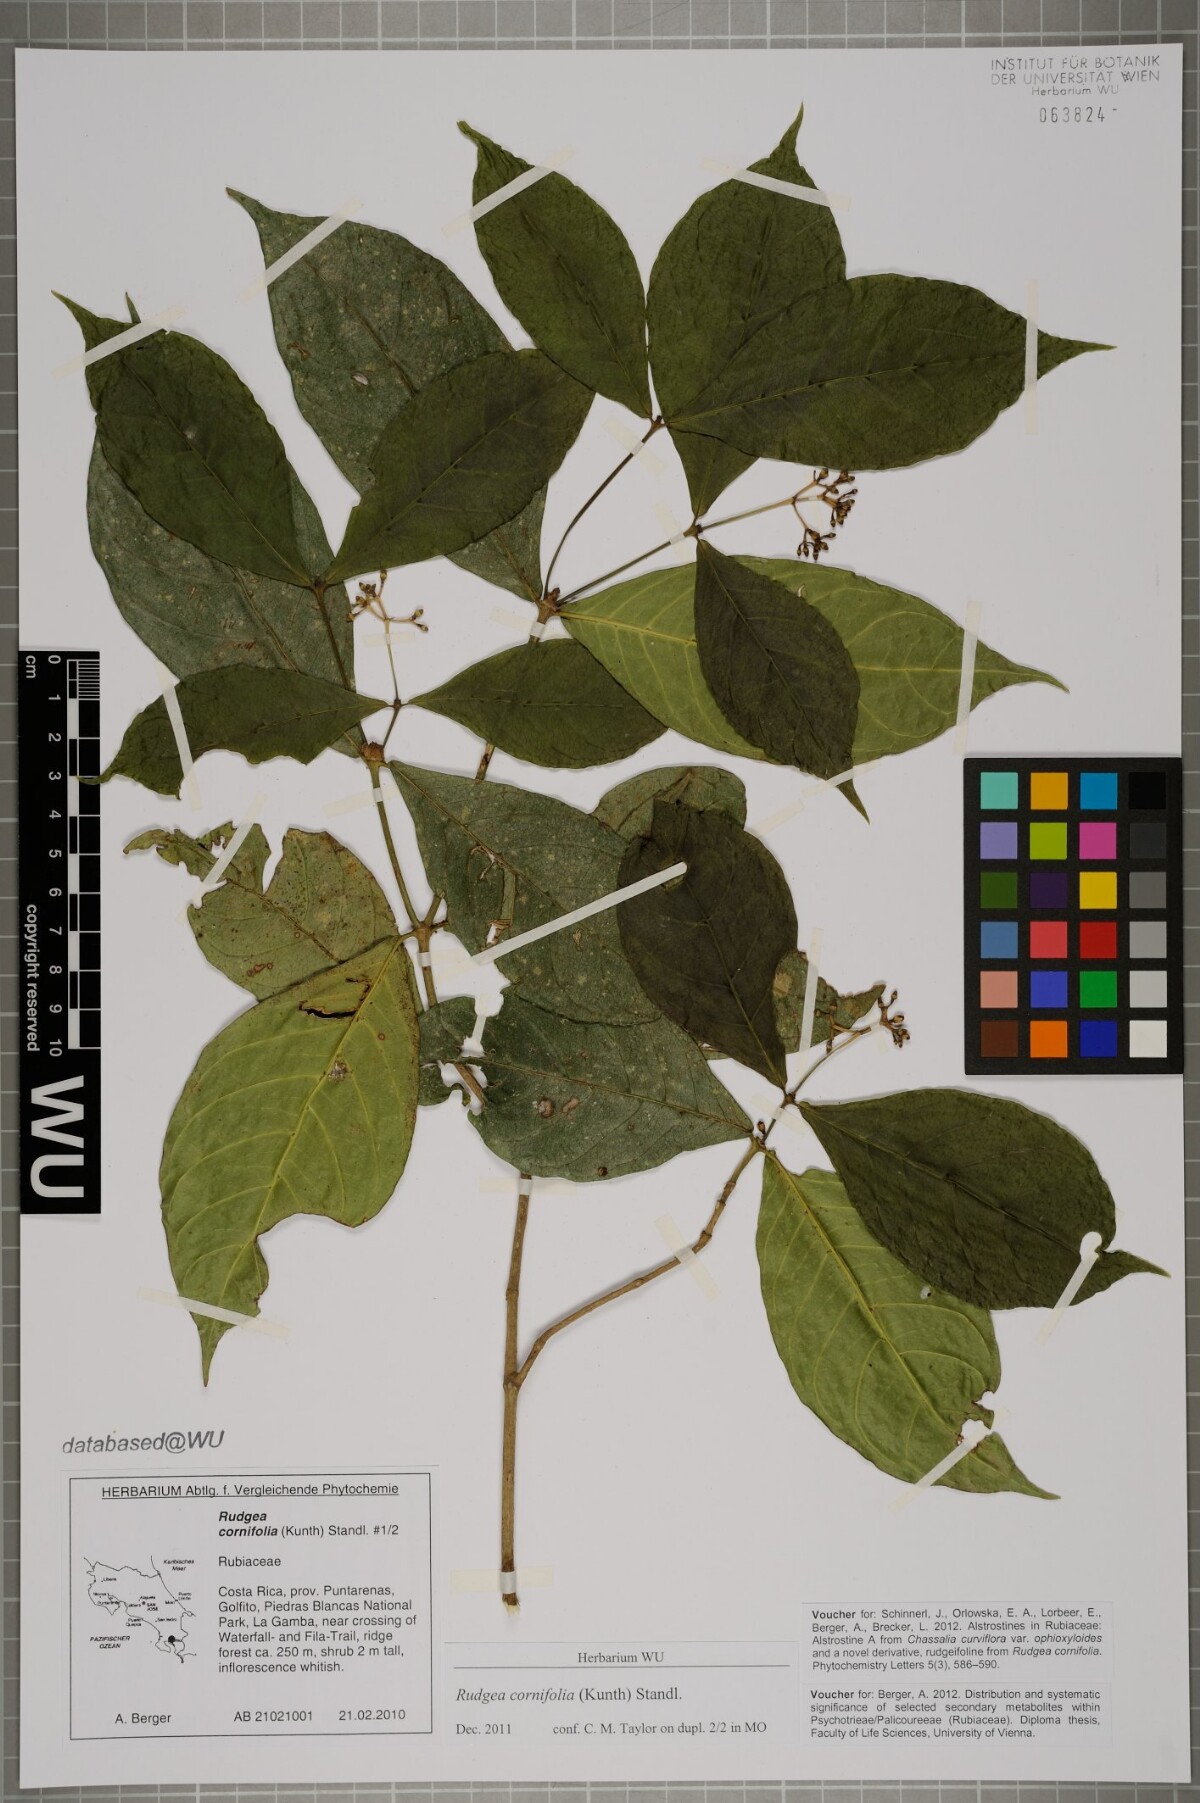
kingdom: Plantae
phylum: Tracheophyta
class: Magnoliopsida
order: Gentianales
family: Rubiaceae
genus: Rudgea
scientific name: Rudgea cornifolia
